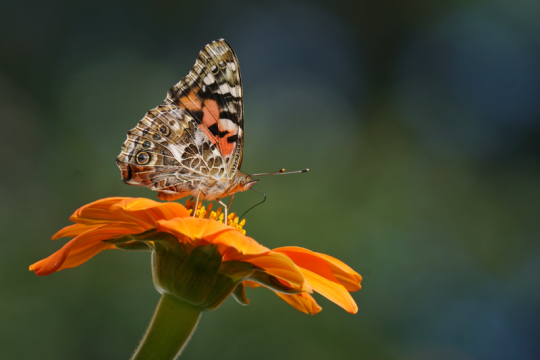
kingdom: Animalia
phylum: Arthropoda
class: Insecta
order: Lepidoptera
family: Nymphalidae
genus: Vanessa
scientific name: Vanessa cardui
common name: Painted Lady
